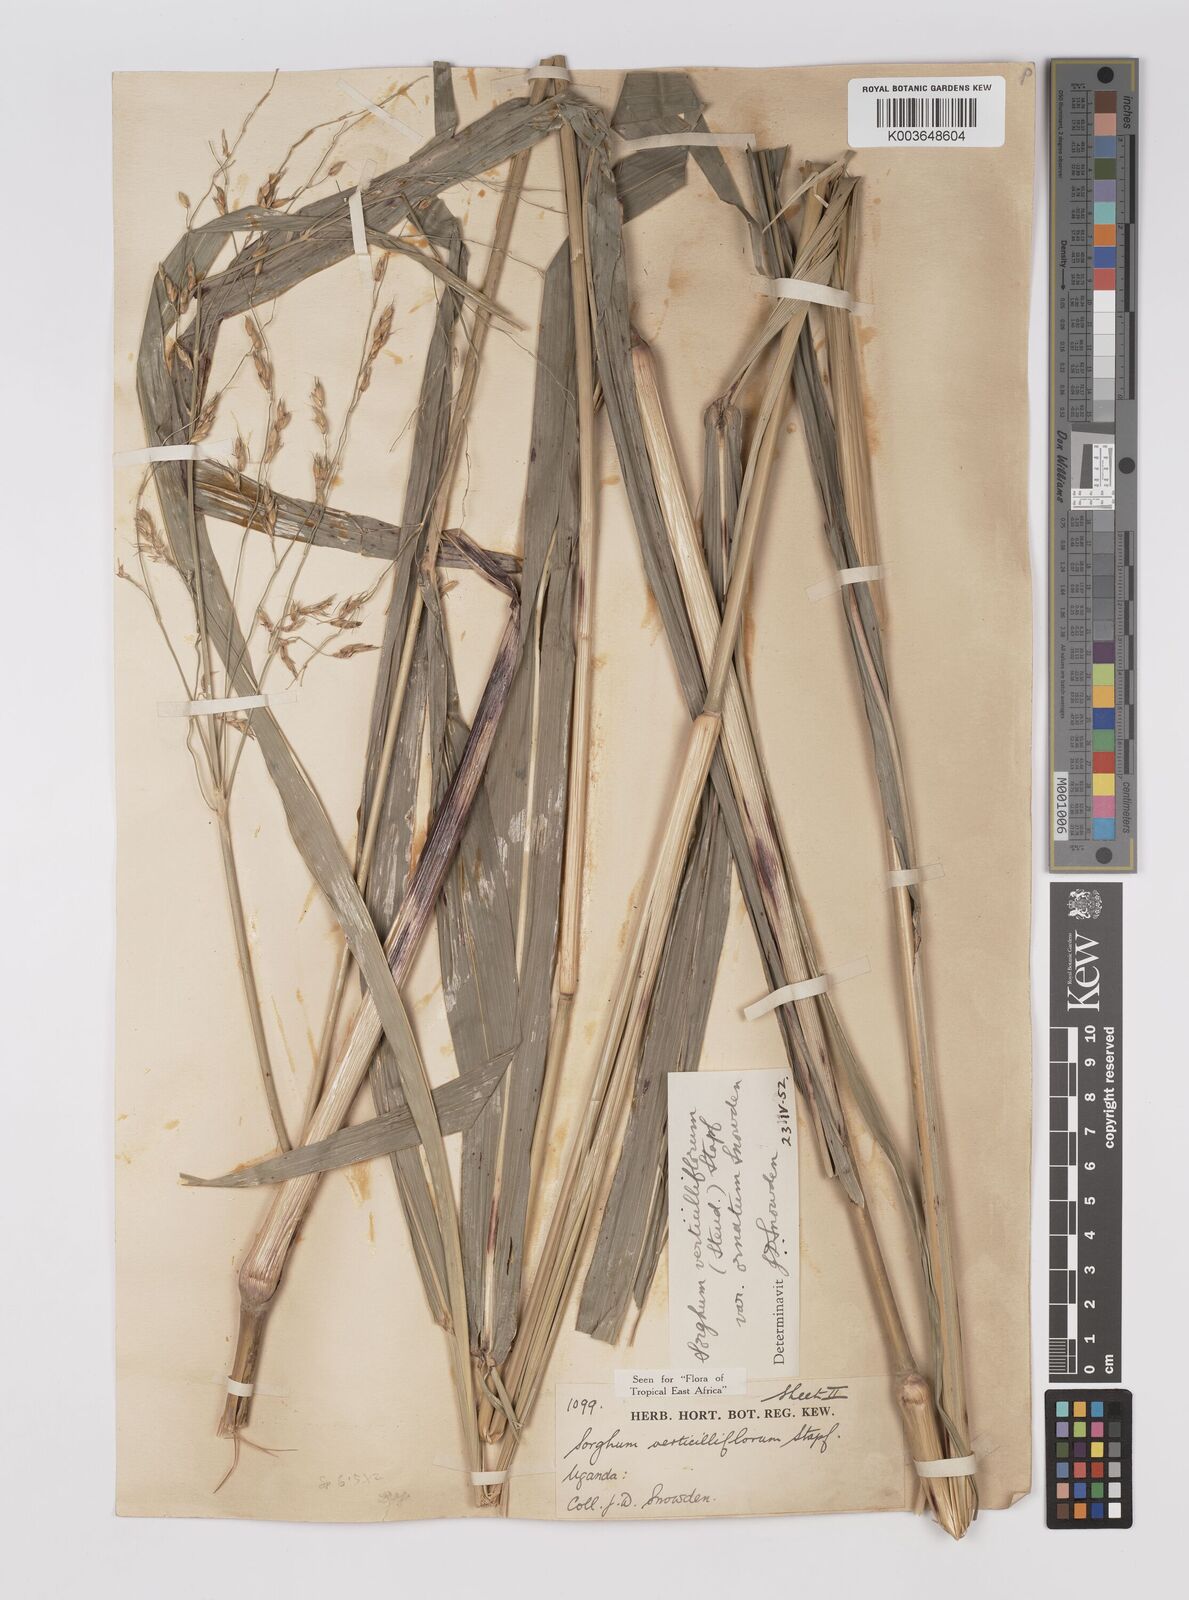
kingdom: Plantae
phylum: Tracheophyta
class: Liliopsida
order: Poales
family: Poaceae
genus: Sorghum
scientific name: Sorghum arundinaceum
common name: Sorghum
